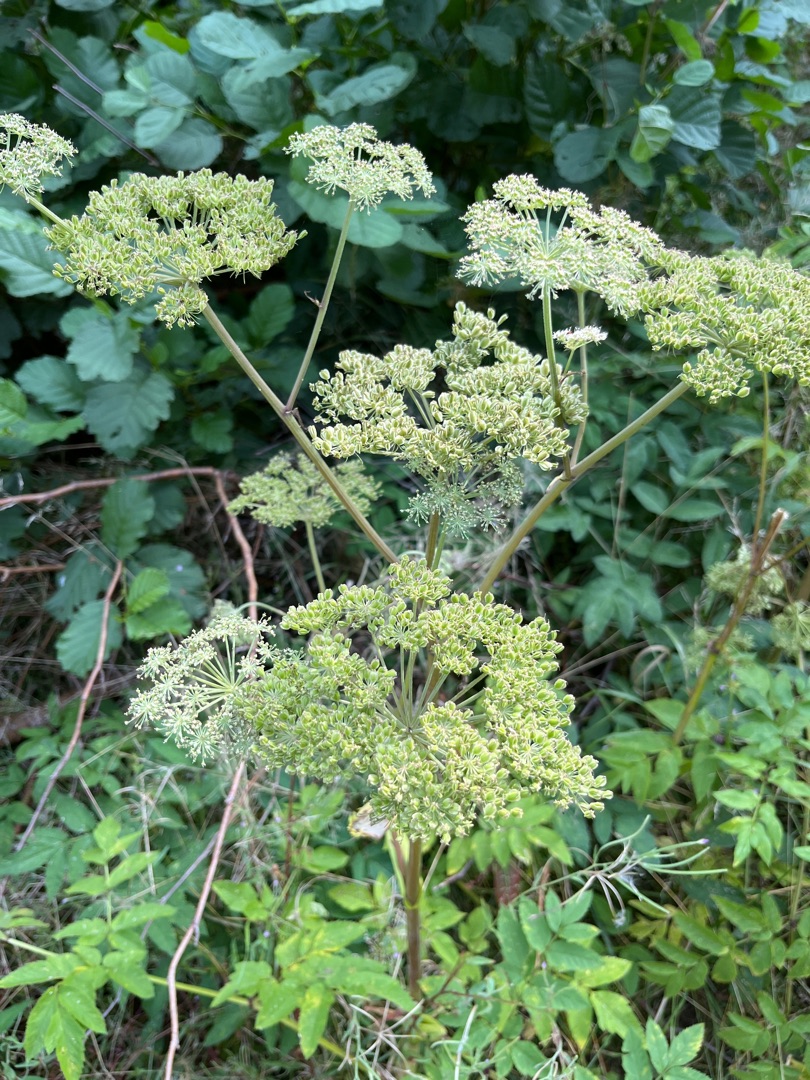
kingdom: Plantae
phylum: Tracheophyta
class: Magnoliopsida
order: Apiales
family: Apiaceae
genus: Angelica
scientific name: Angelica sylvestris
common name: Angelik
